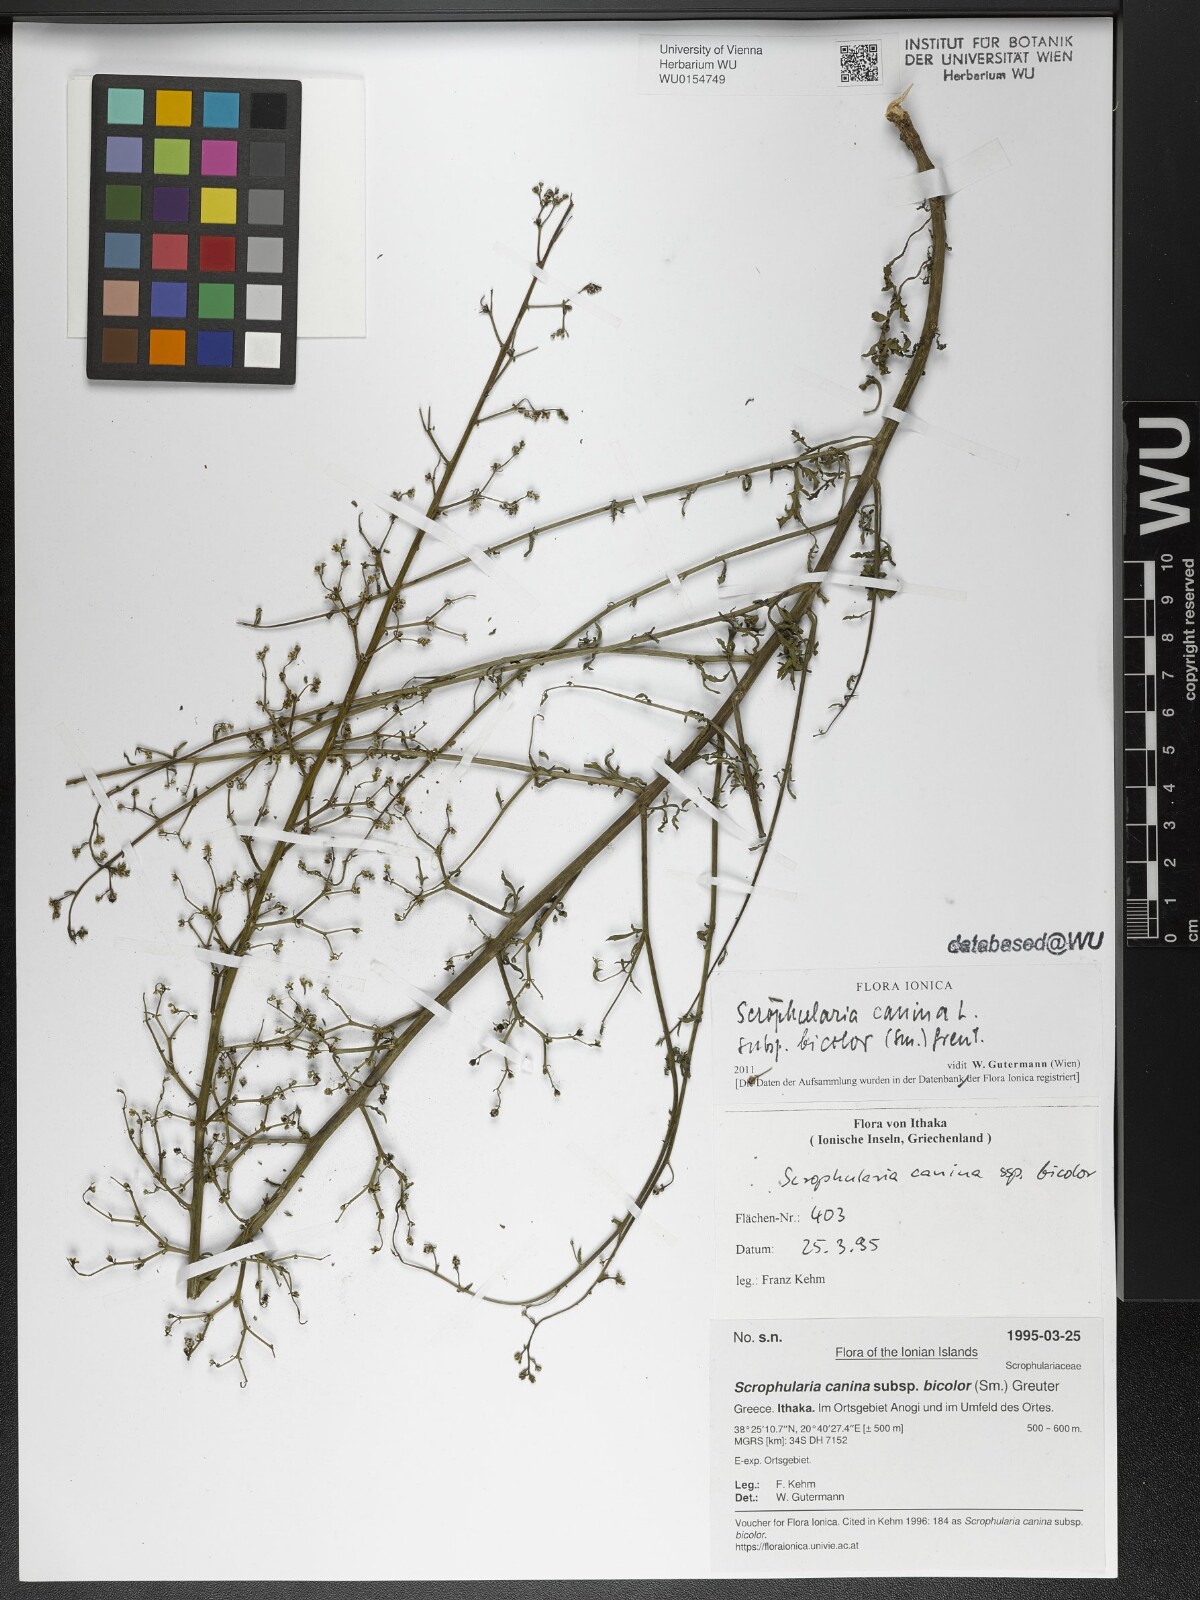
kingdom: Plantae
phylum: Tracheophyta
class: Magnoliopsida
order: Lamiales
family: Scrophulariaceae
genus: Scrophularia
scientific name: Scrophularia canina
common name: French figwort
